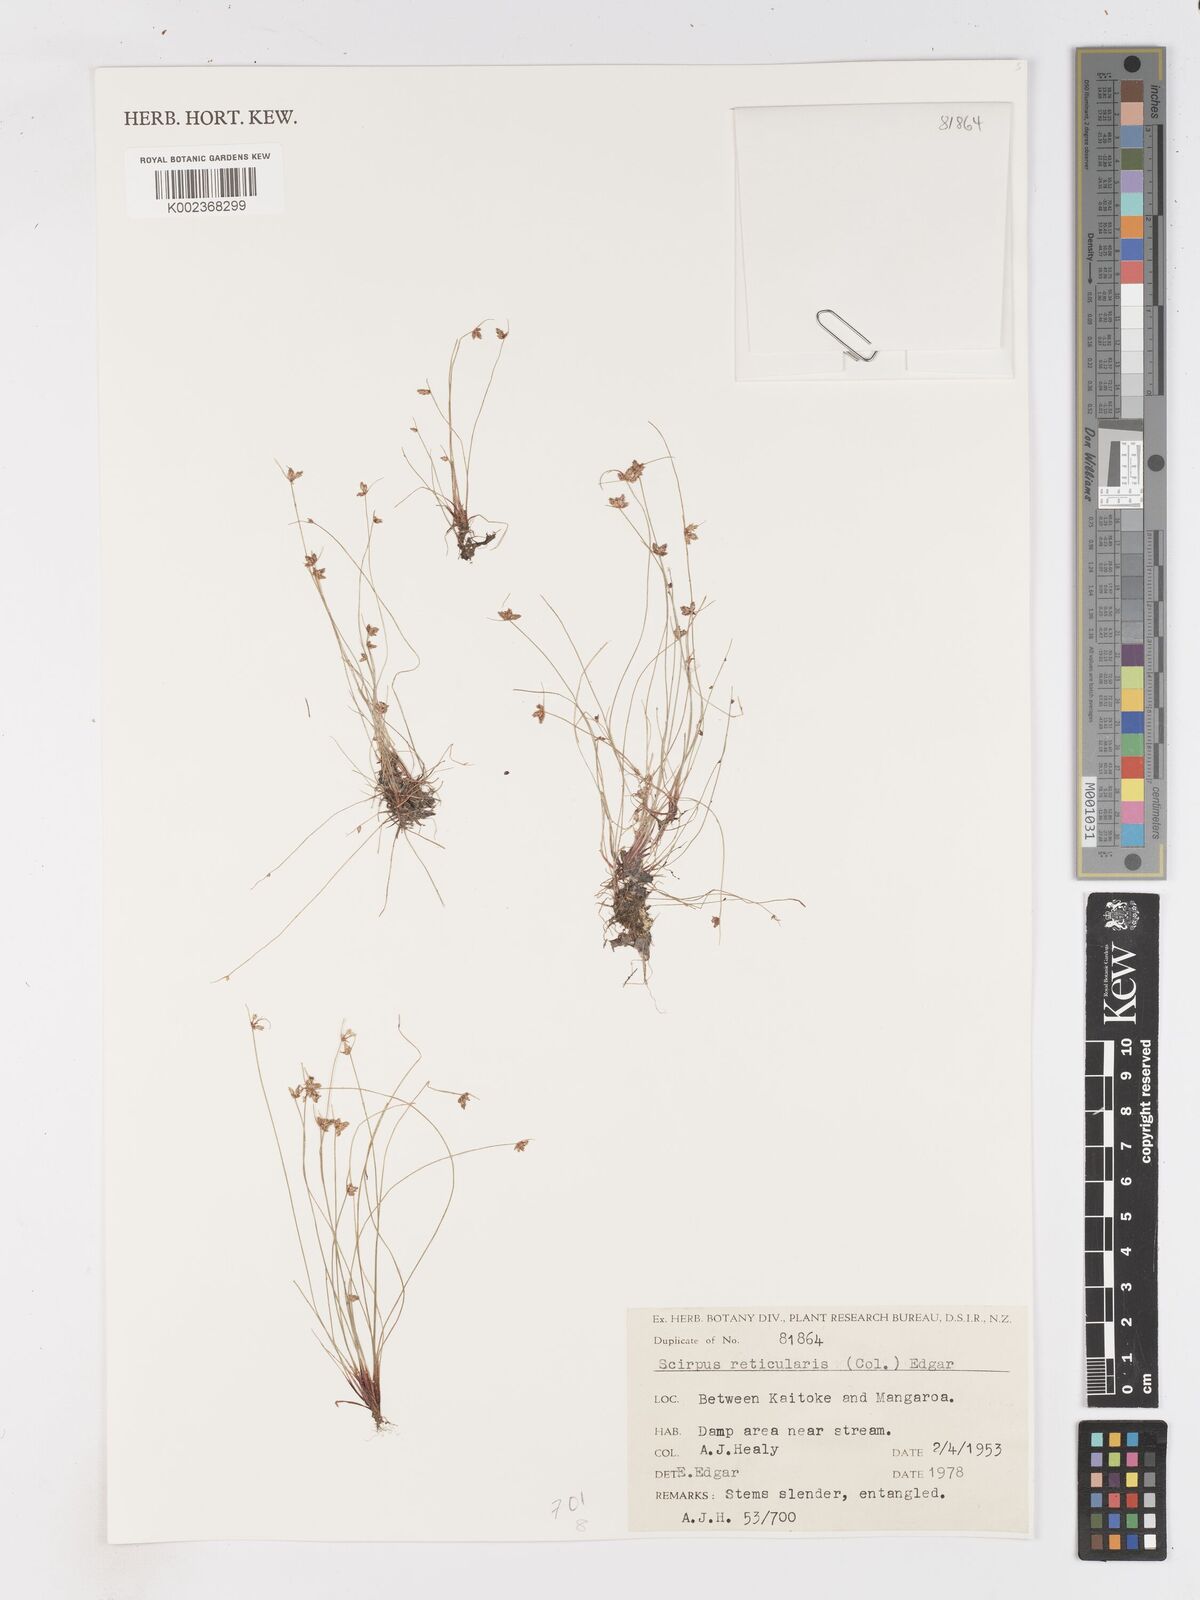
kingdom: Plantae
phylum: Tracheophyta
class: Liliopsida
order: Poales
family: Cyperaceae
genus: Isolepis
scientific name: Isolepis reticularis
